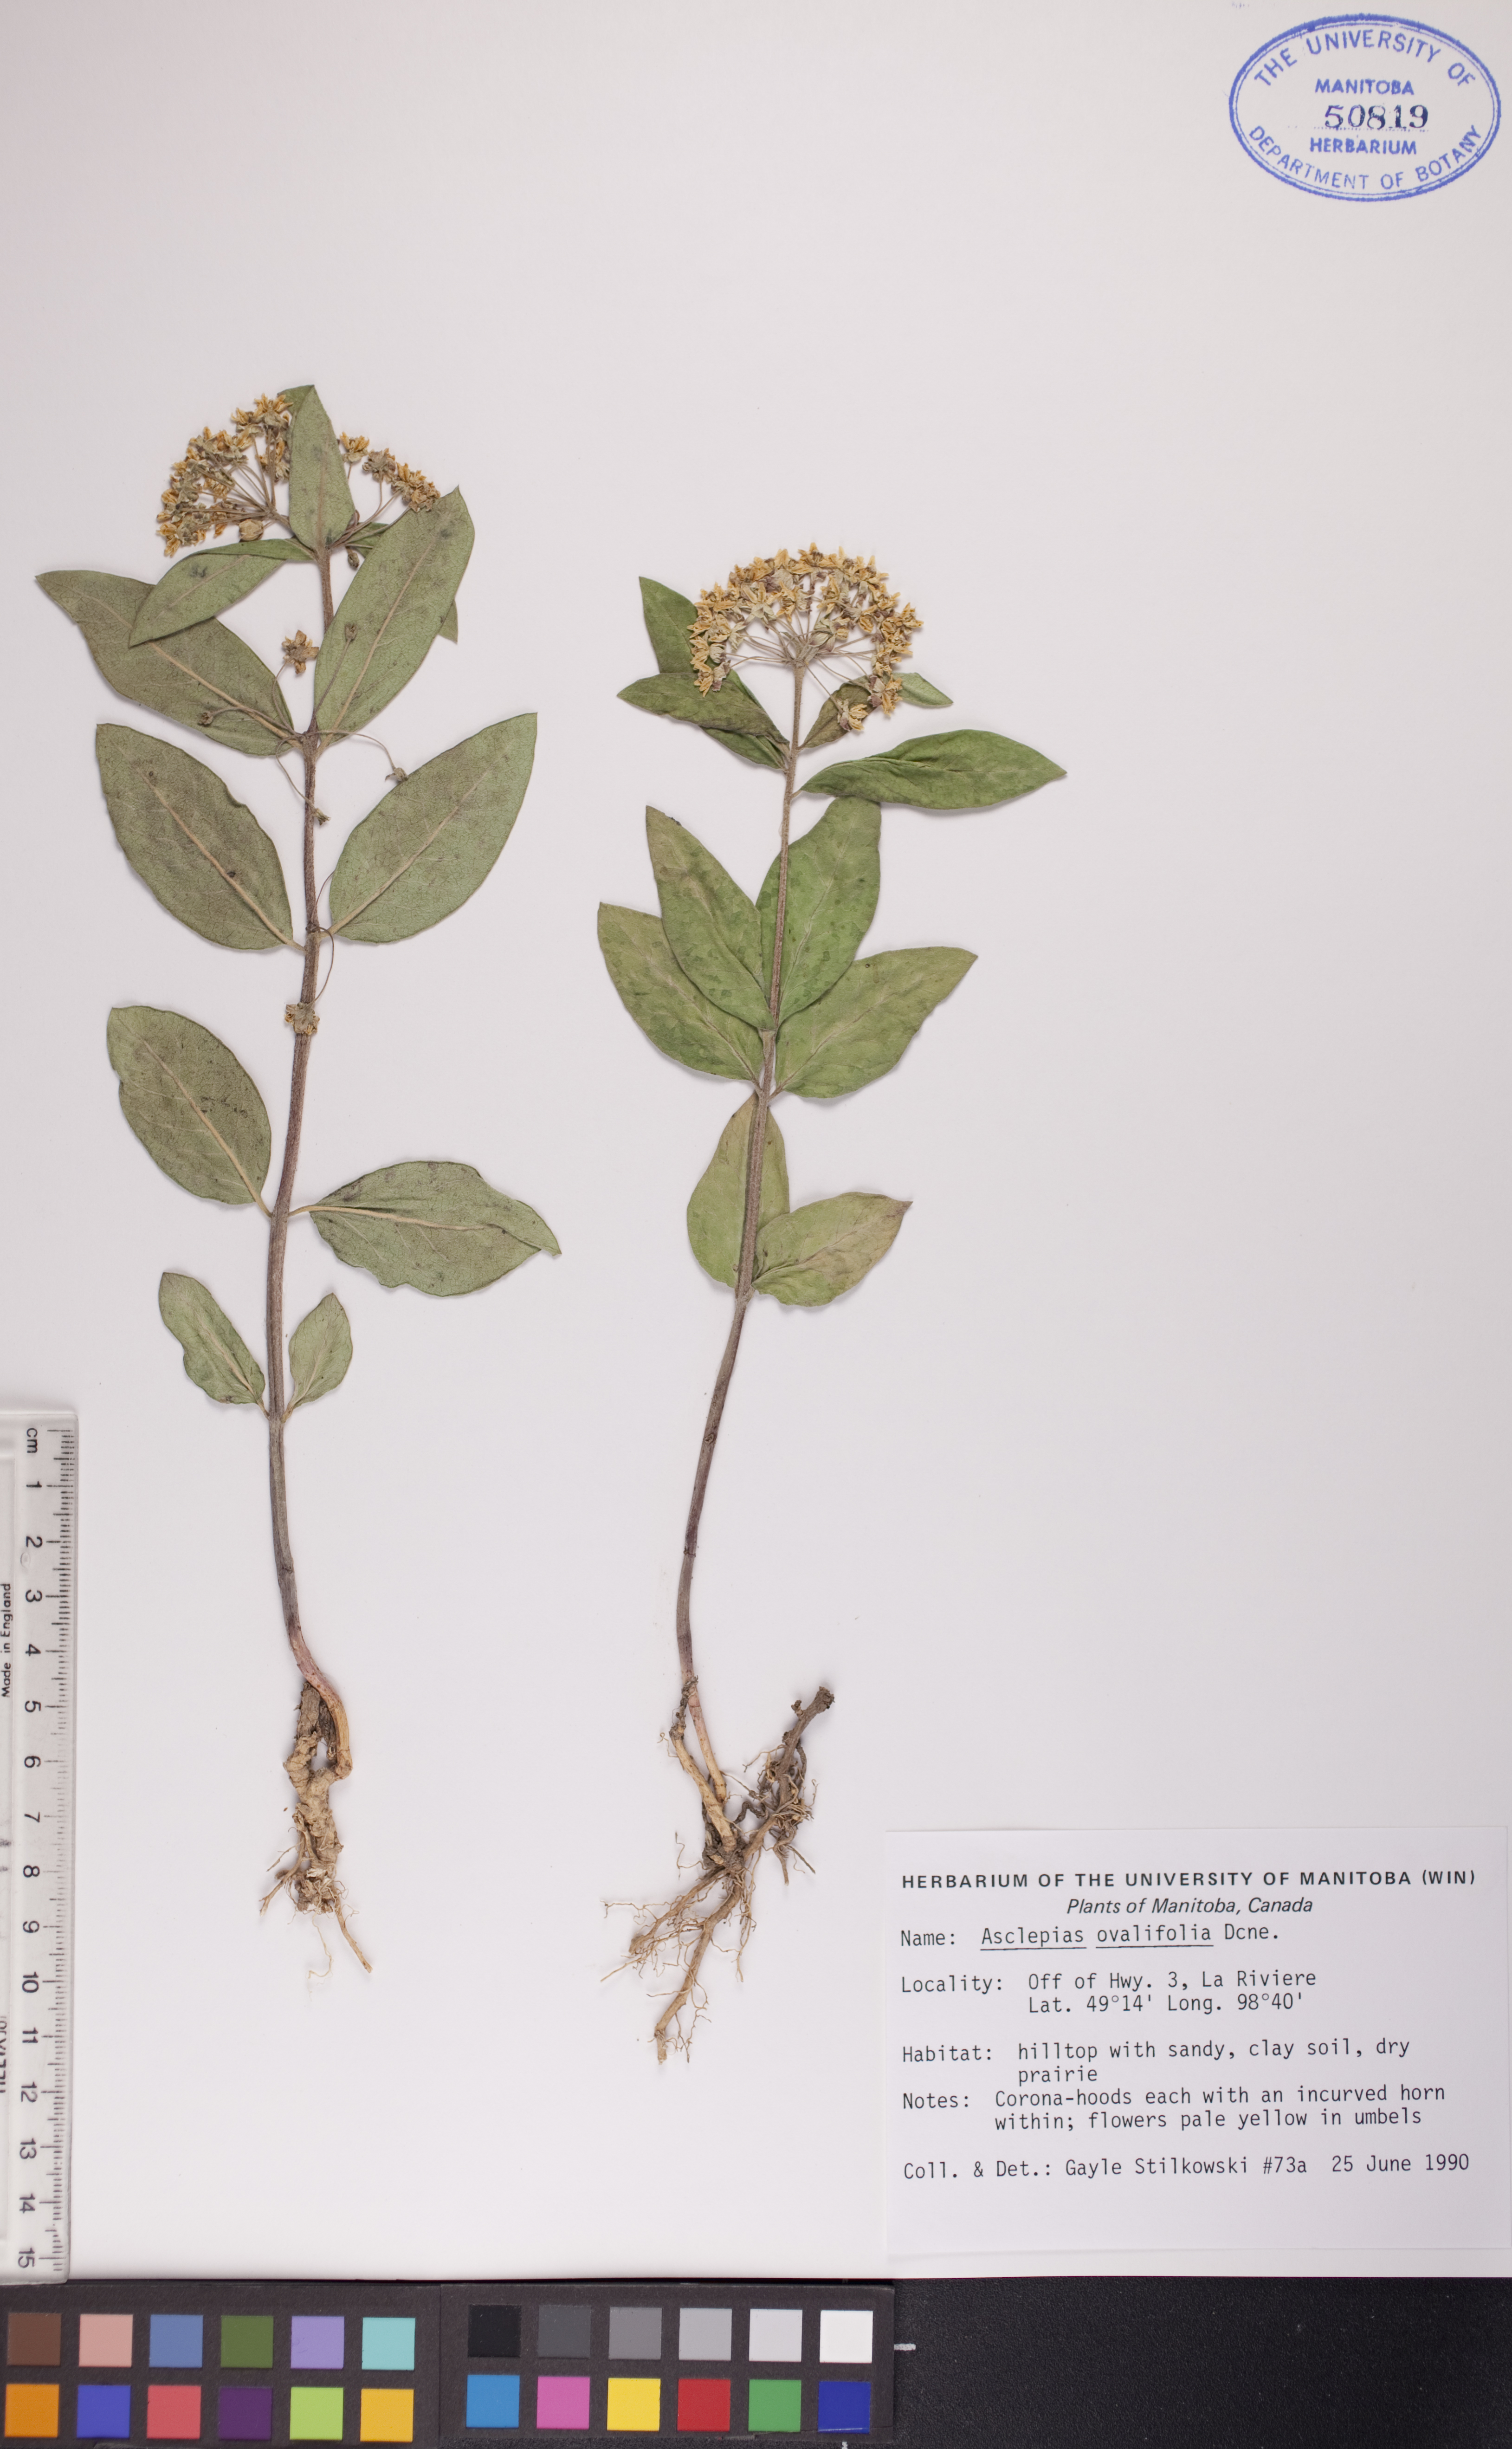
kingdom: Plantae
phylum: Tracheophyta
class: Magnoliopsida
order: Gentianales
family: Apocynaceae
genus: Asclepias
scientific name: Asclepias ovalifolia
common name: Dwarf milkweed
